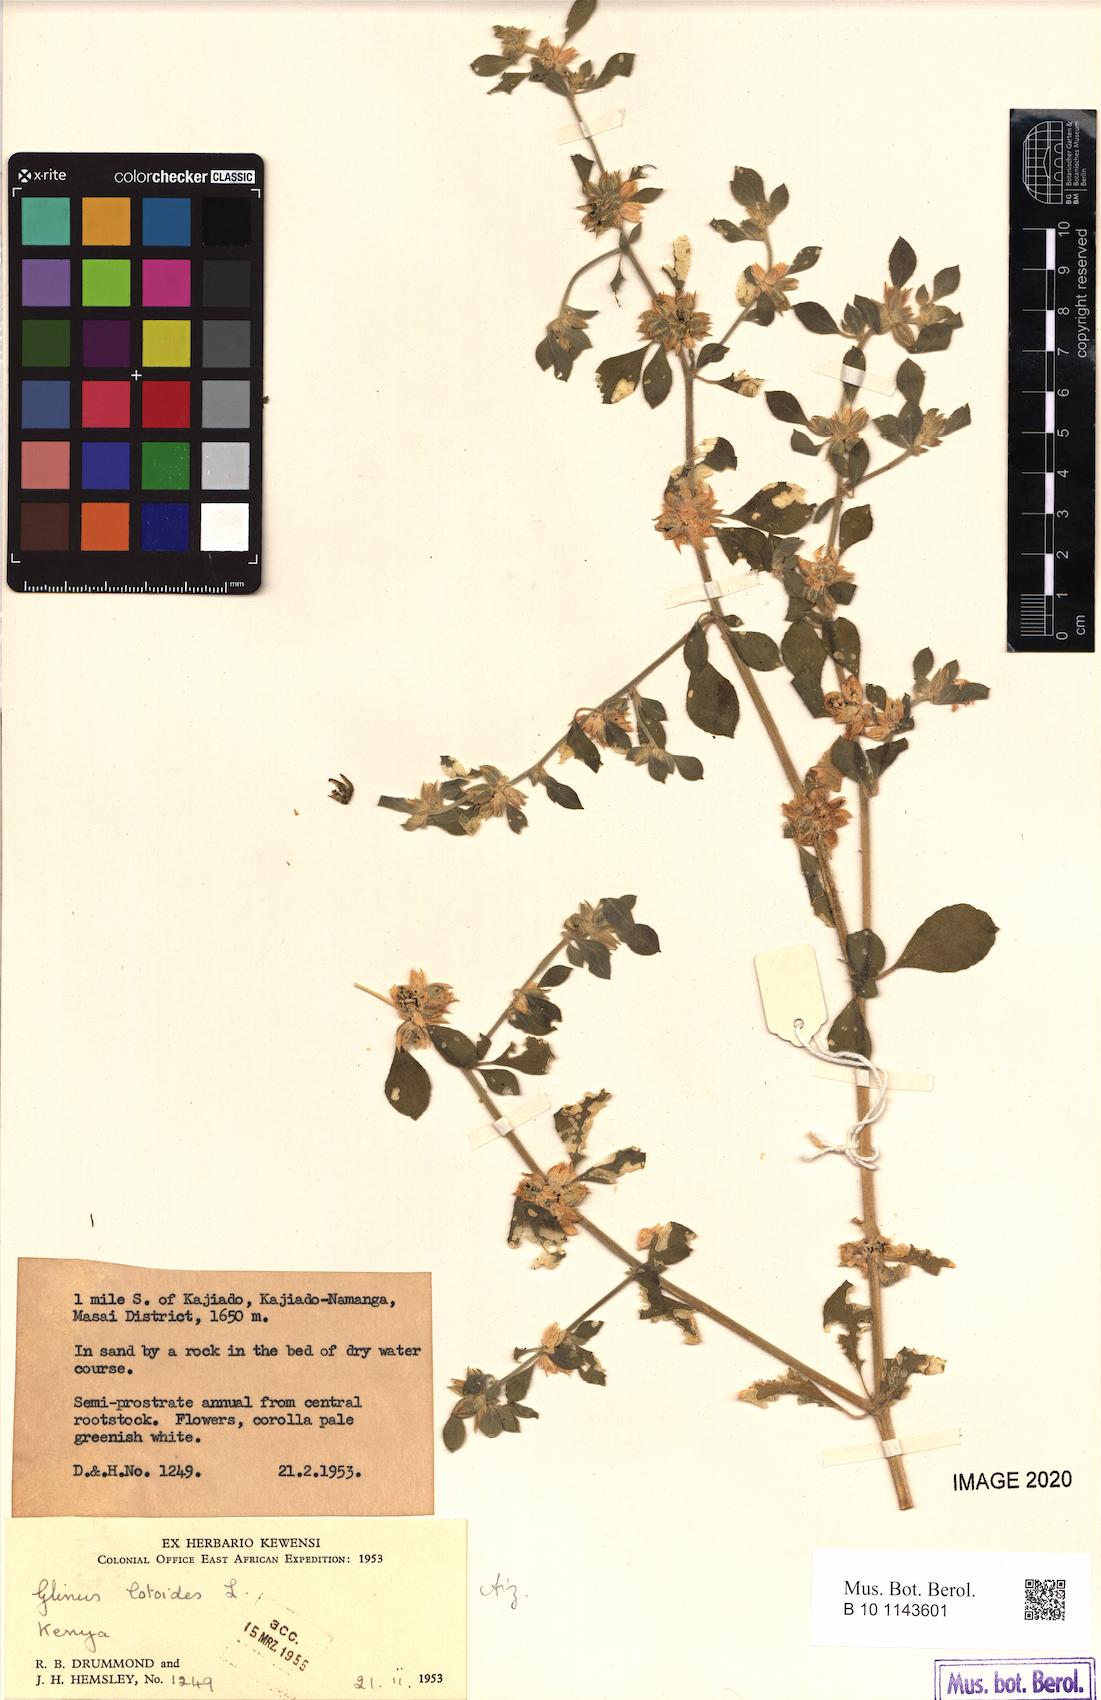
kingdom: Plantae
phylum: Tracheophyta
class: Magnoliopsida
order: Caryophyllales
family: Molluginaceae
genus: Glinus
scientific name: Glinus lotoides
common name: Lotus sweetjuice
